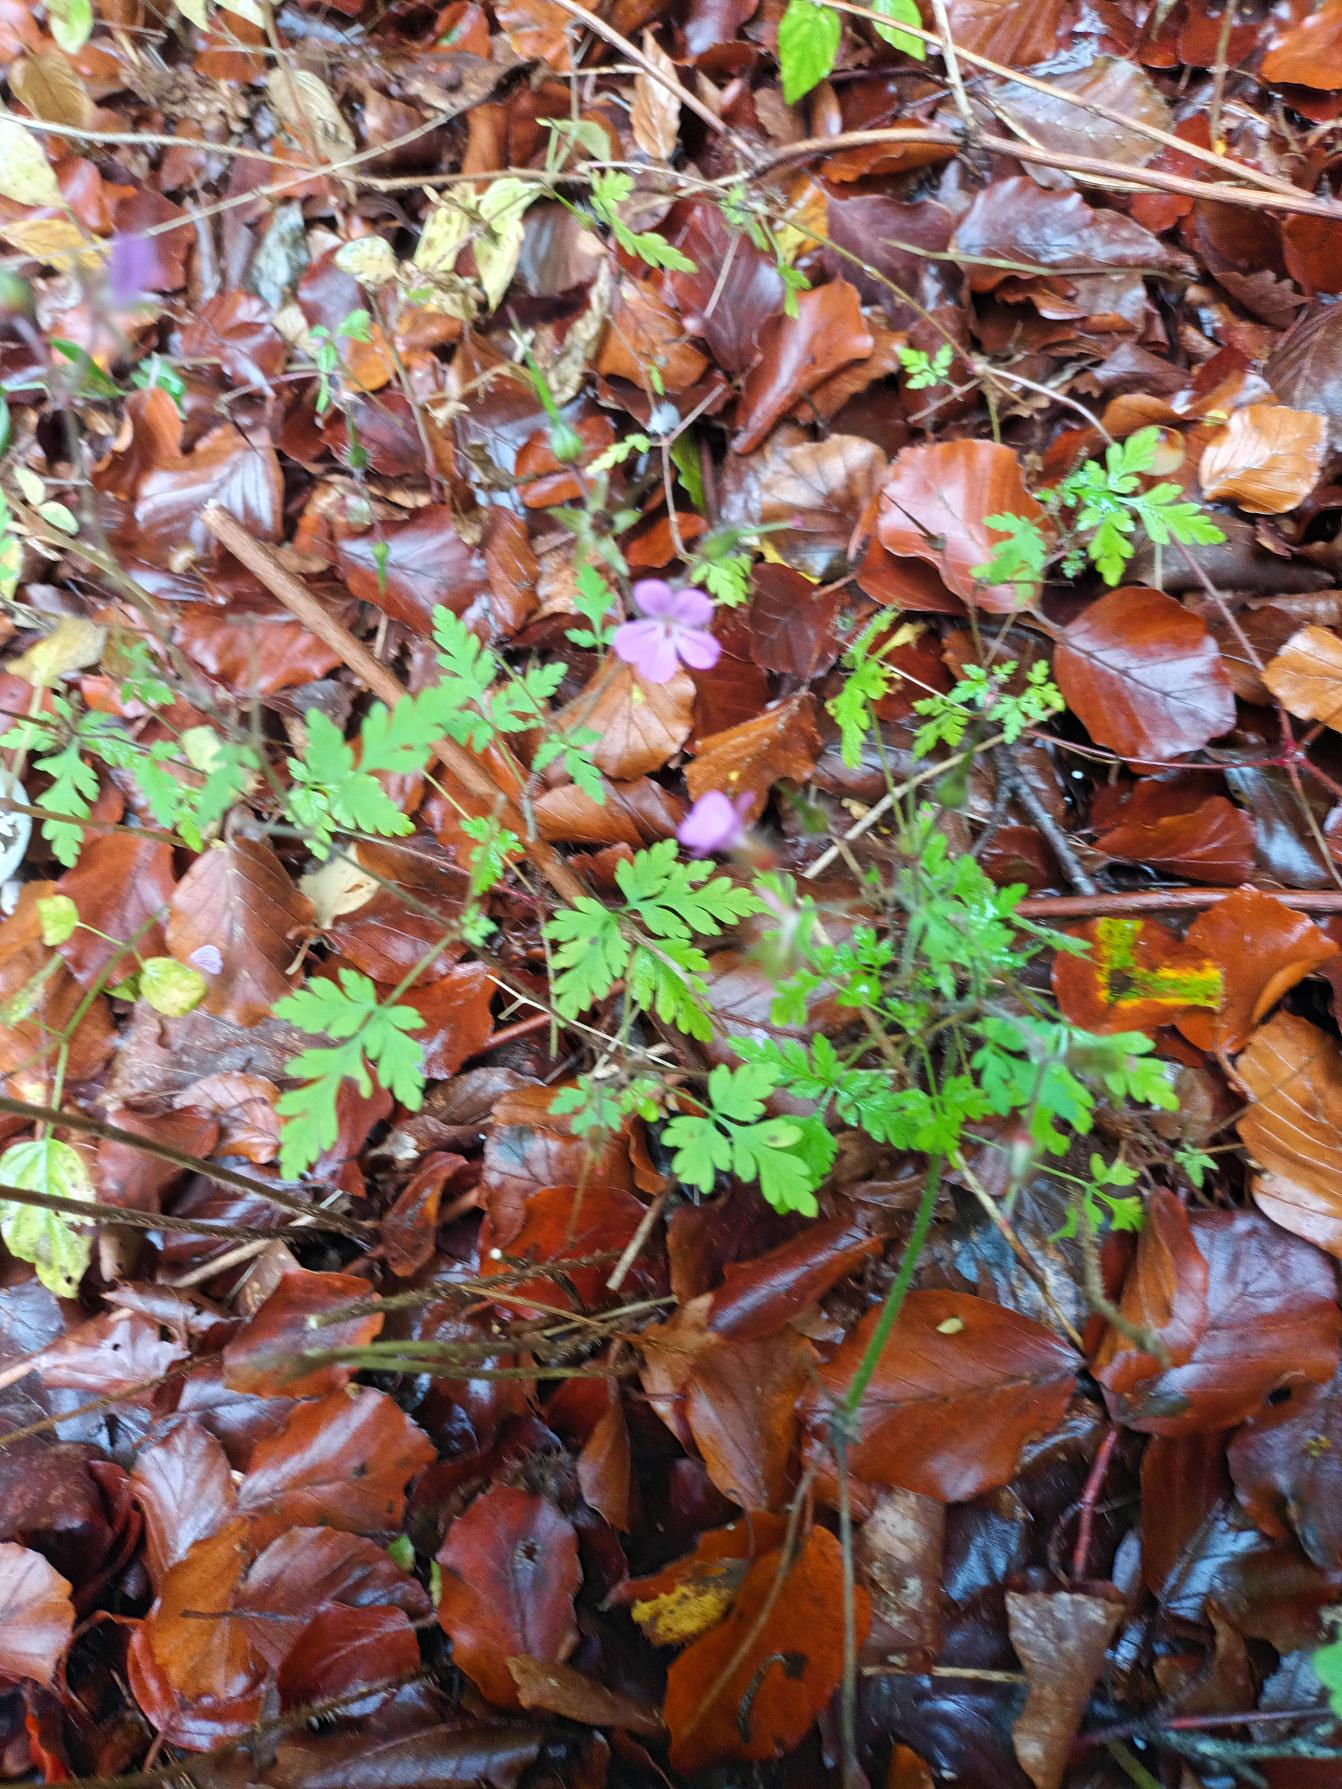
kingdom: Plantae
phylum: Tracheophyta
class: Magnoliopsida
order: Geraniales
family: Geraniaceae
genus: Geranium
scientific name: Geranium robertianum
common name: Stinkende storkenæb
